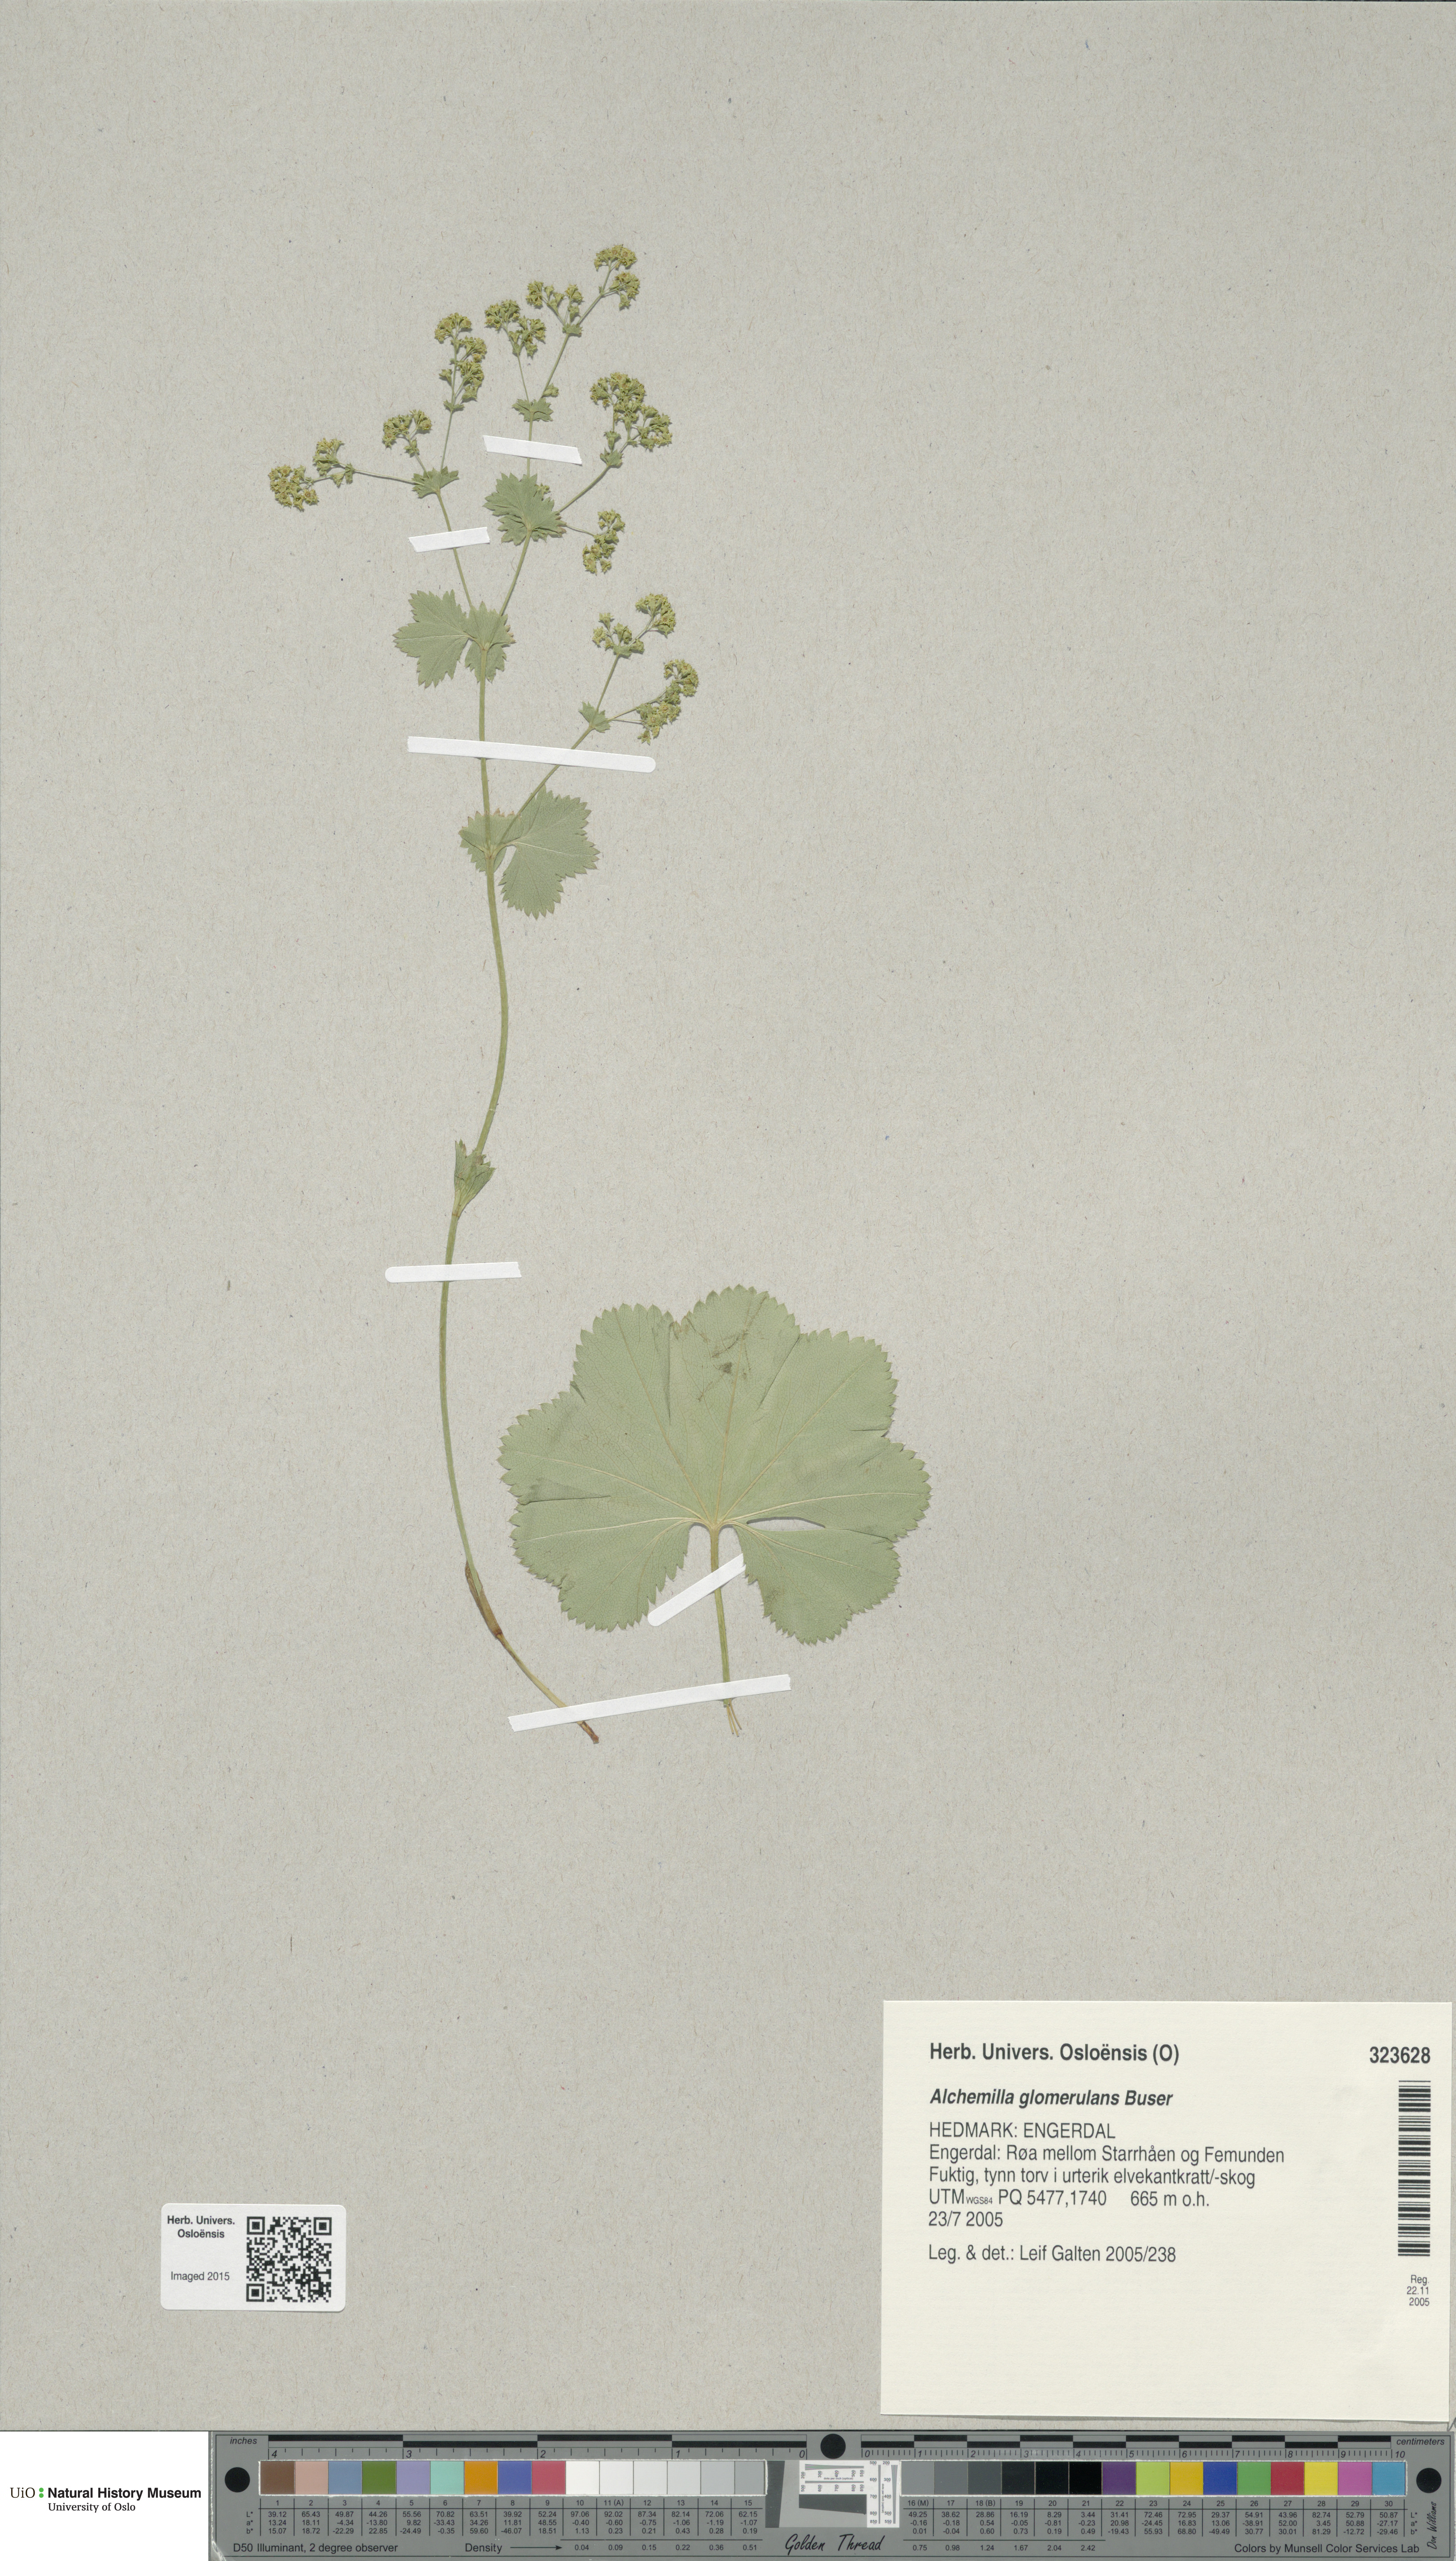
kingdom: Plantae
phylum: Tracheophyta
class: Magnoliopsida
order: Rosales
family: Rosaceae
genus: Alchemilla
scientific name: Alchemilla glomerulans
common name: Clustered lady's mantle
